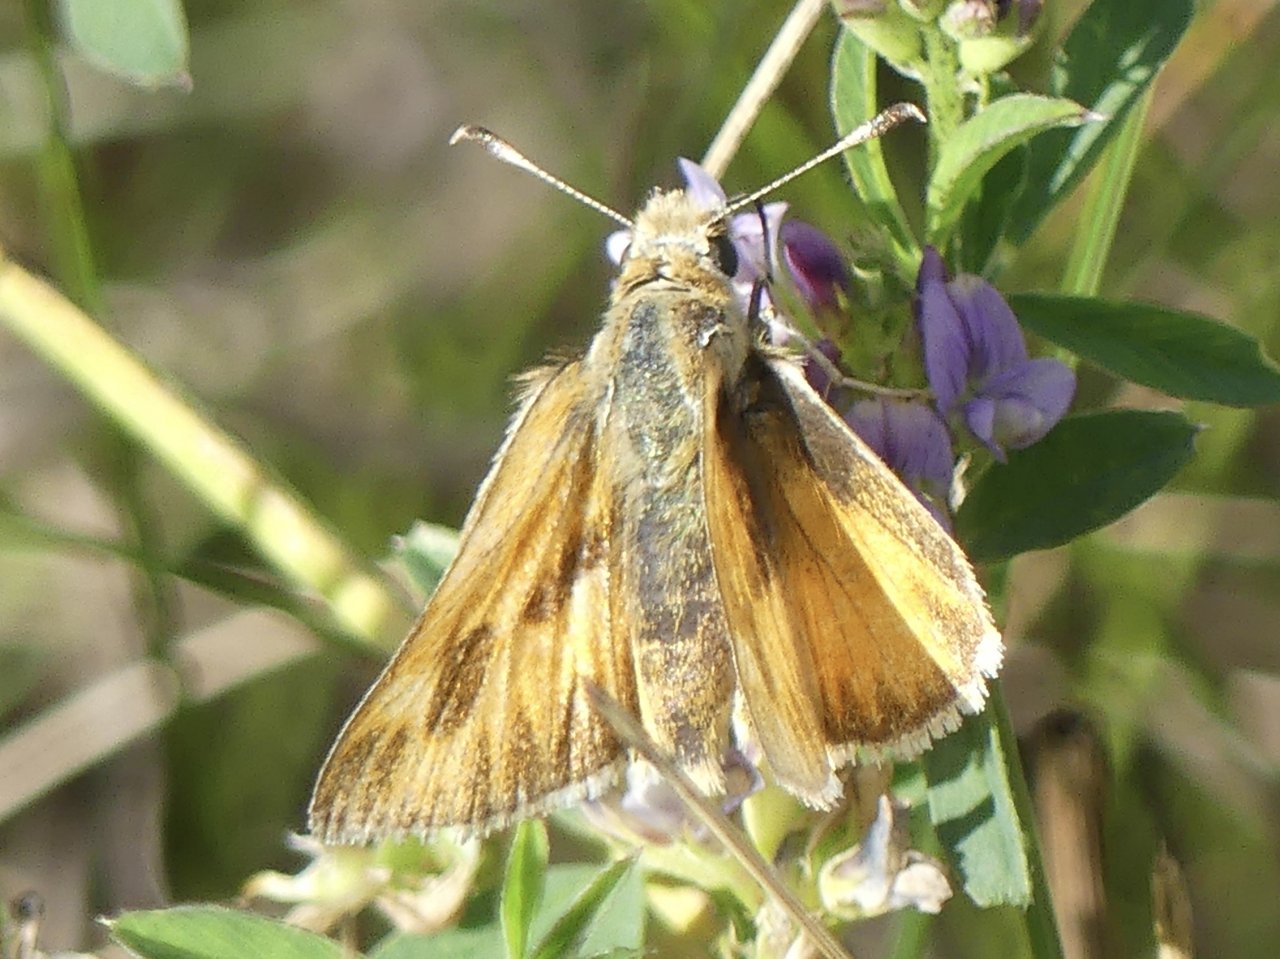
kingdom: Animalia
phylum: Arthropoda
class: Insecta
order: Lepidoptera
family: Hesperiidae
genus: Ochlodes
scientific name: Ochlodes sylvanoides
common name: Woodland Skipper
